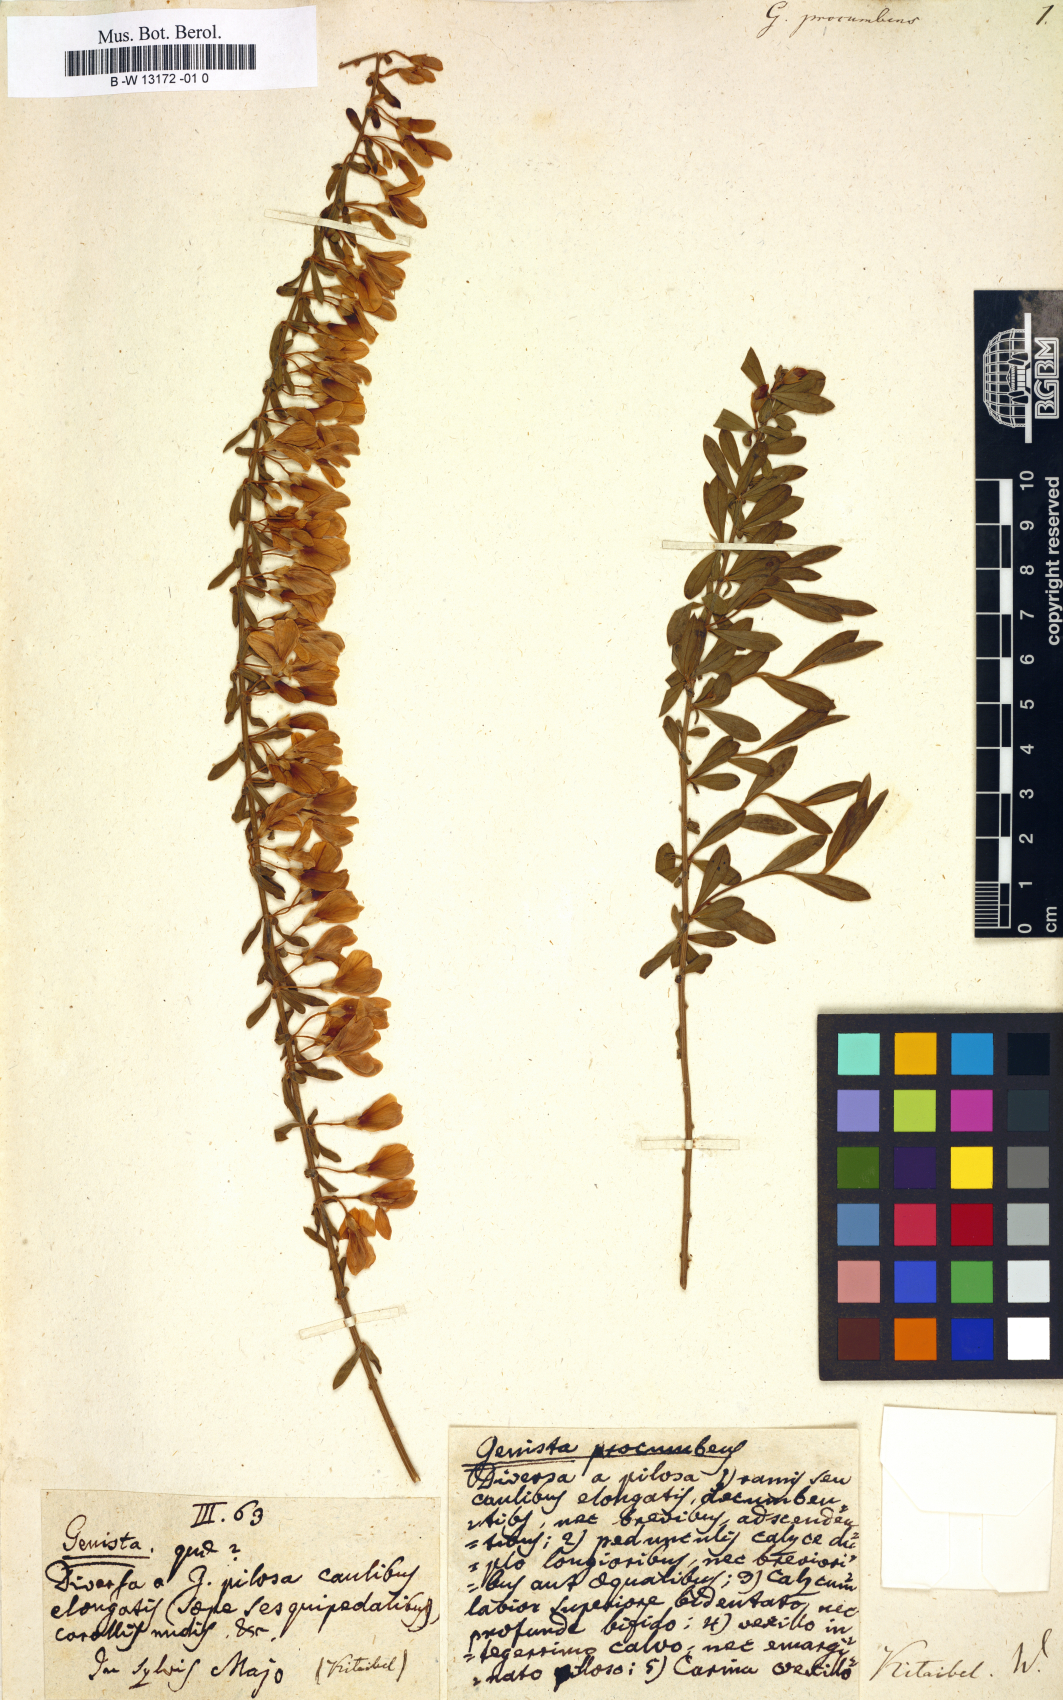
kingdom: Plantae
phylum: Tracheophyta
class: Magnoliopsida
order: Fabales
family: Fabaceae
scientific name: Fabaceae
